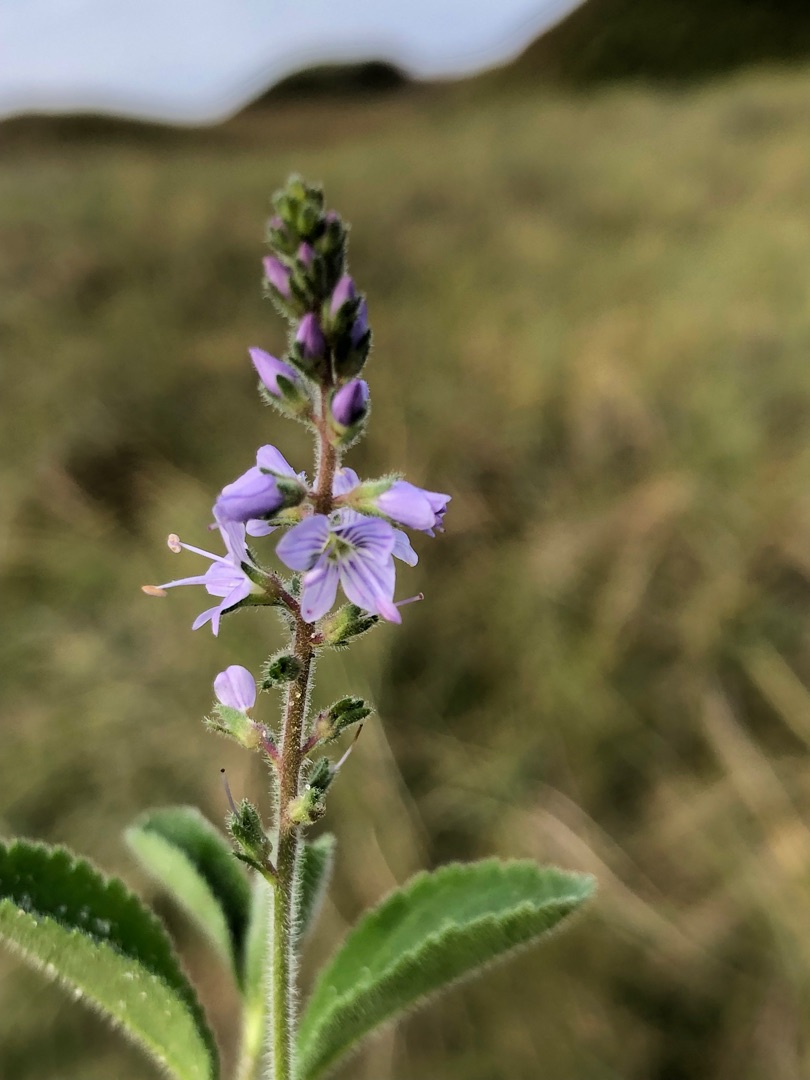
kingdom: Plantae
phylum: Tracheophyta
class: Magnoliopsida
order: Lamiales
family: Plantaginaceae
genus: Veronica
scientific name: Veronica officinalis
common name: Læge-ærenpris
